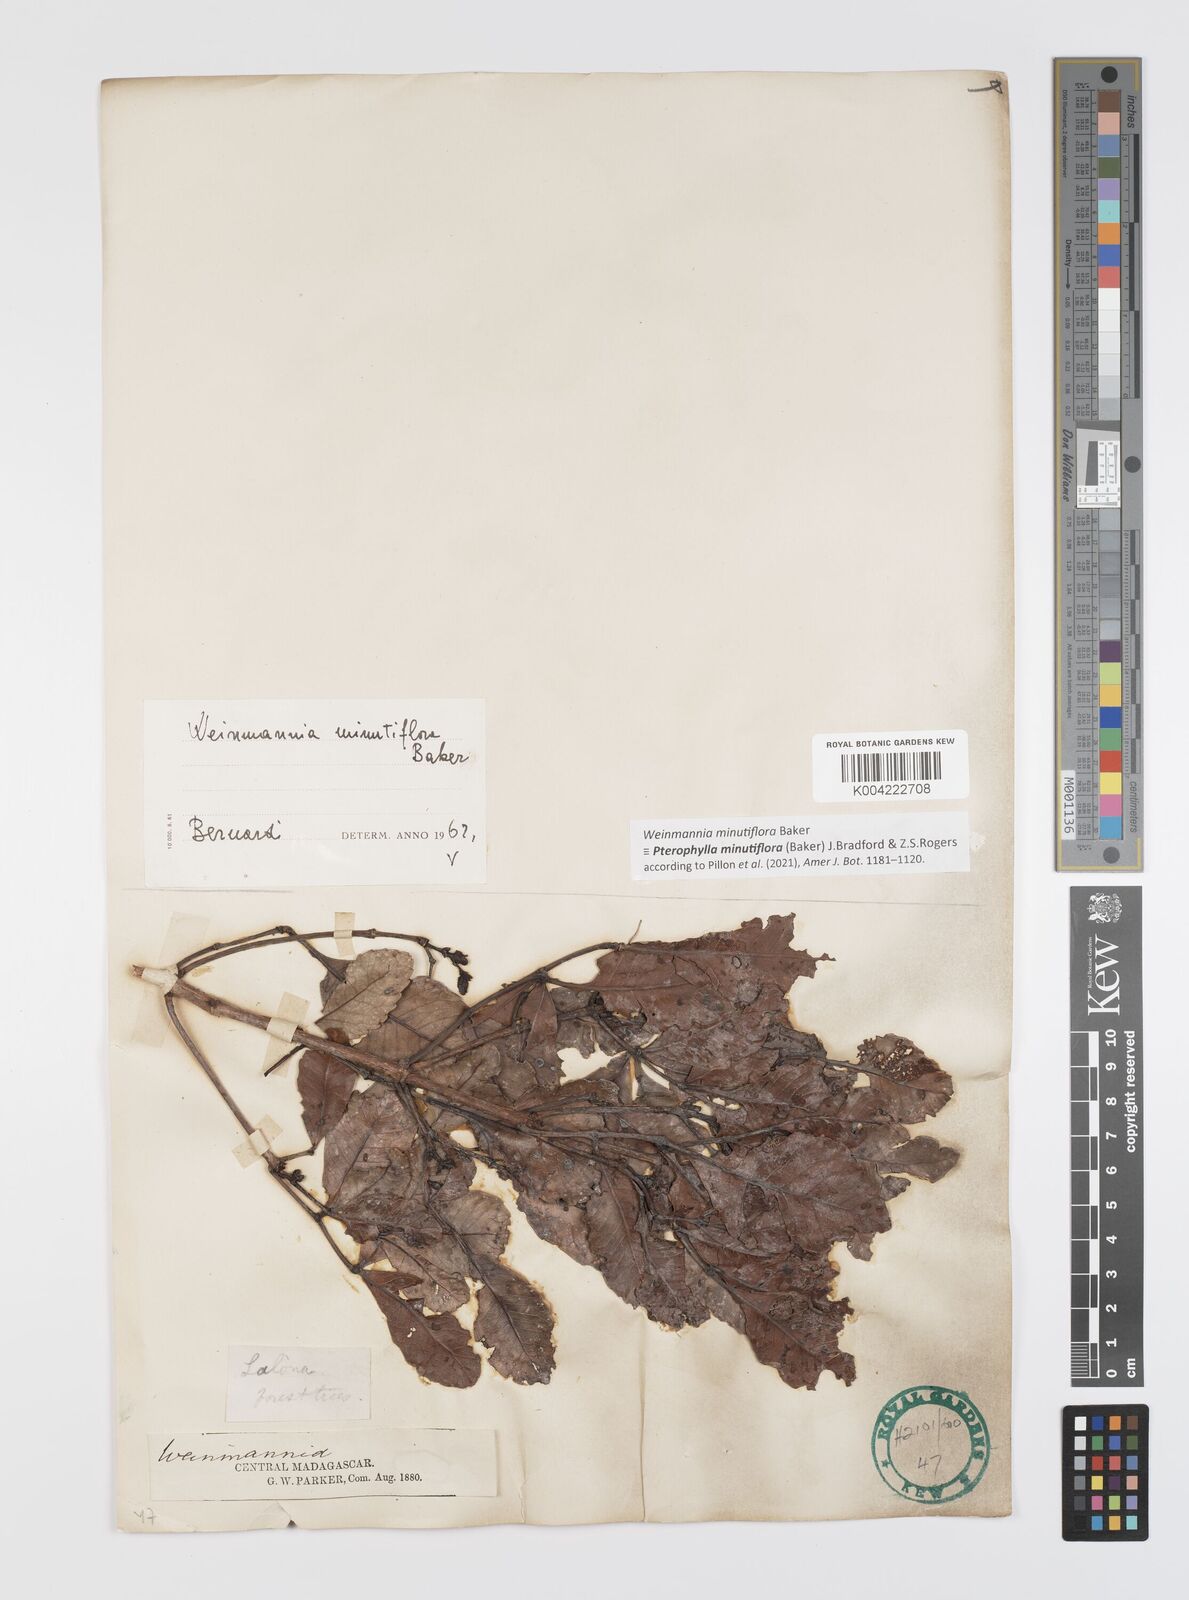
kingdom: Plantae
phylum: Tracheophyta
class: Magnoliopsida
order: Oxalidales
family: Cunoniaceae
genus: Pterophylla
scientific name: Pterophylla
